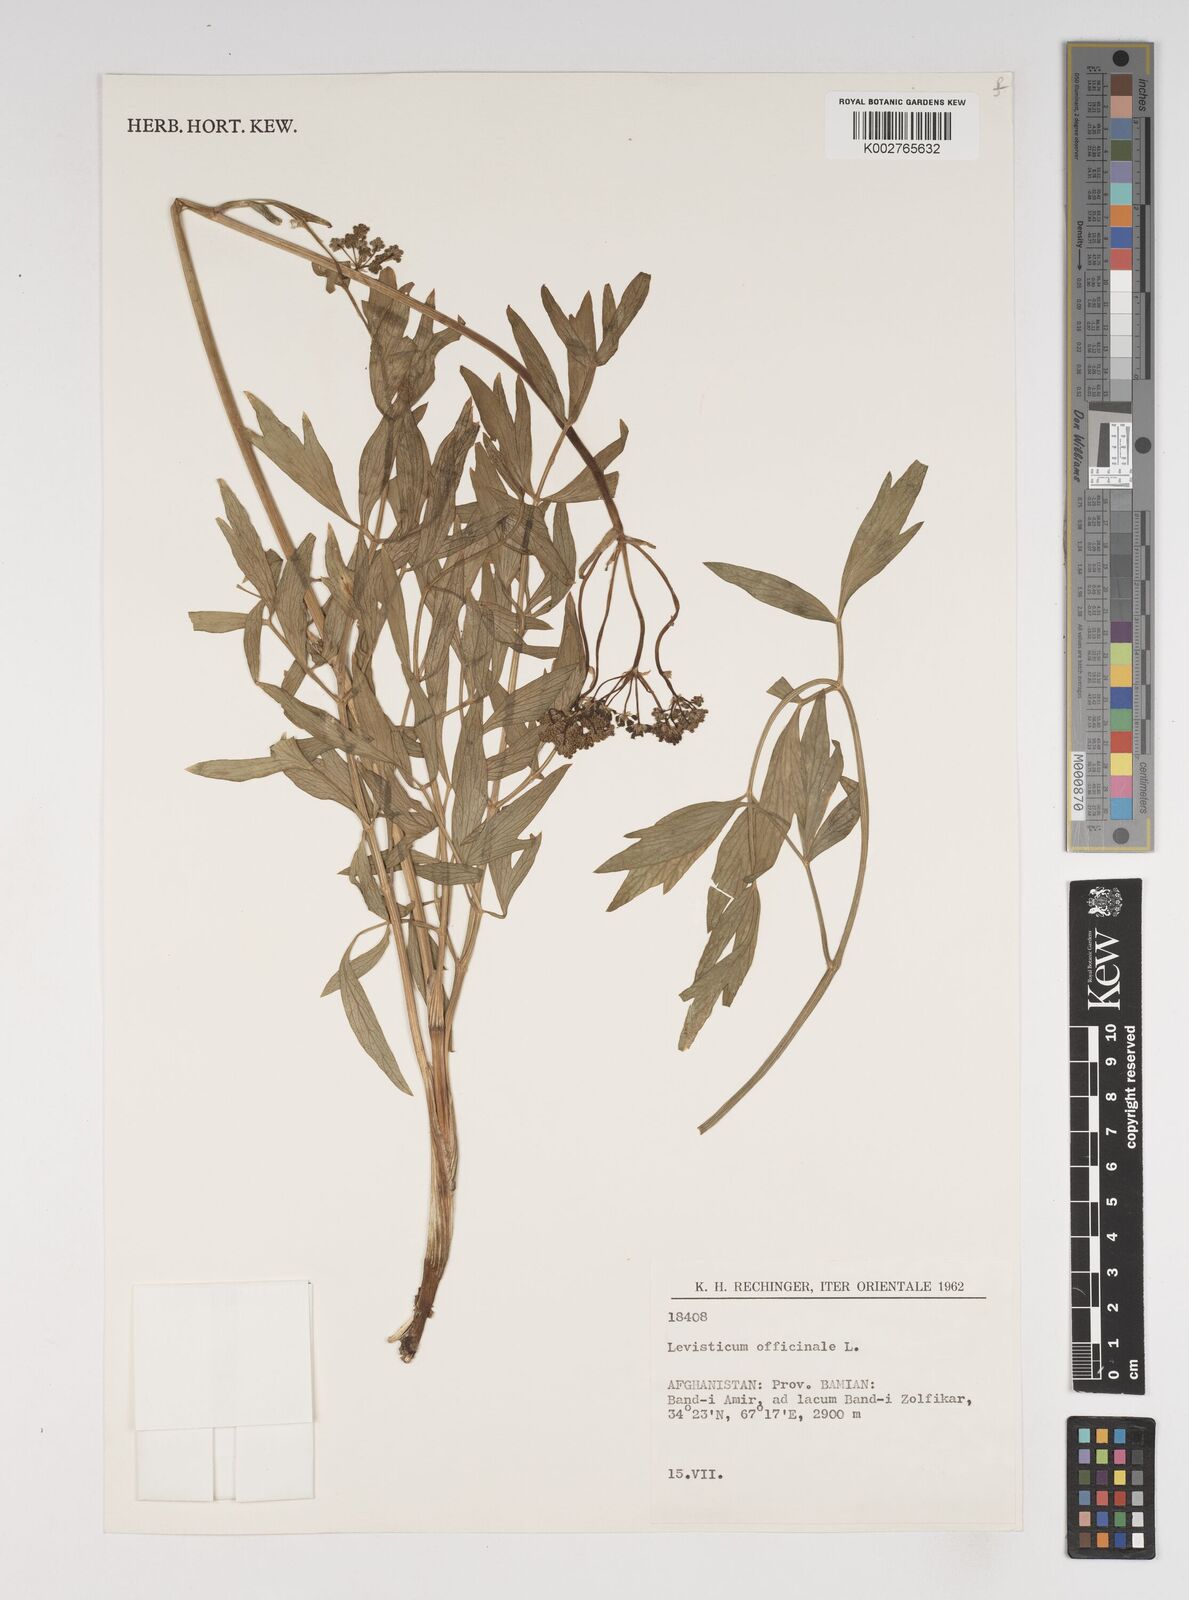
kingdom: Plantae
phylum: Tracheophyta
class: Magnoliopsida
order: Apiales
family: Apiaceae
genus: Levisticum
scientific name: Levisticum officinale
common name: Lovage
